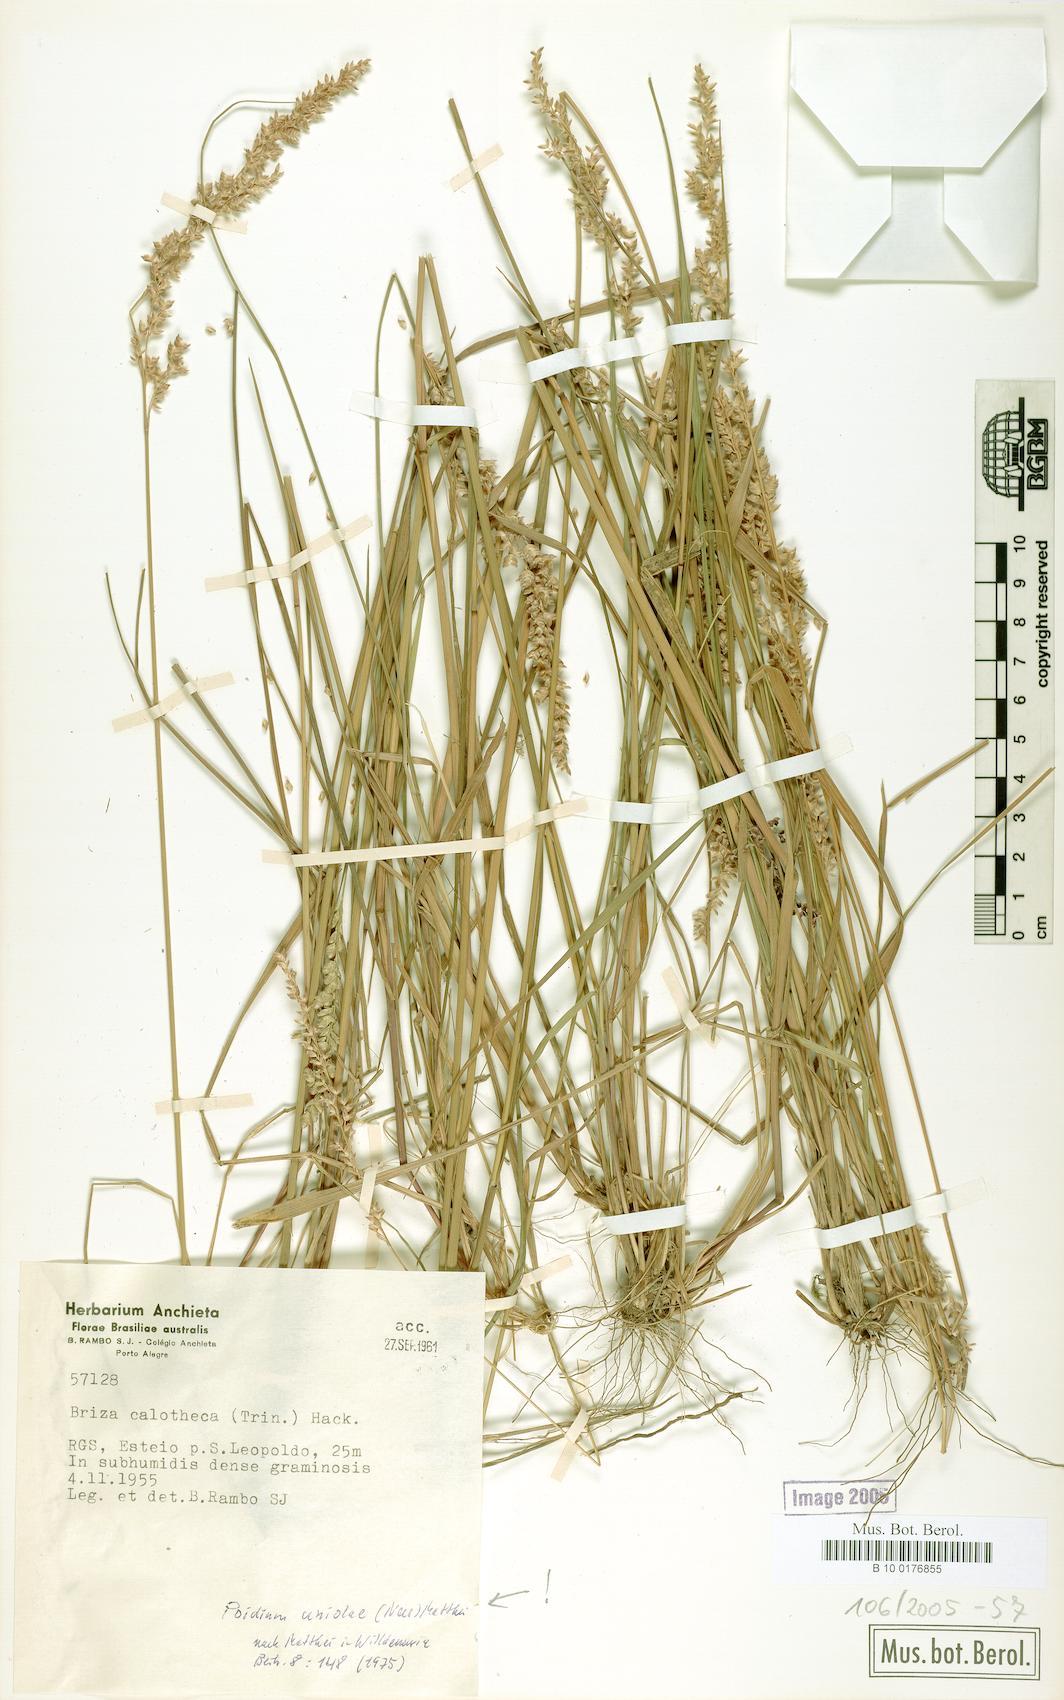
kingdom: Plantae
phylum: Tracheophyta
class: Liliopsida
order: Poales
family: Poaceae
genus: Poidium
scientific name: Poidium uniolae
